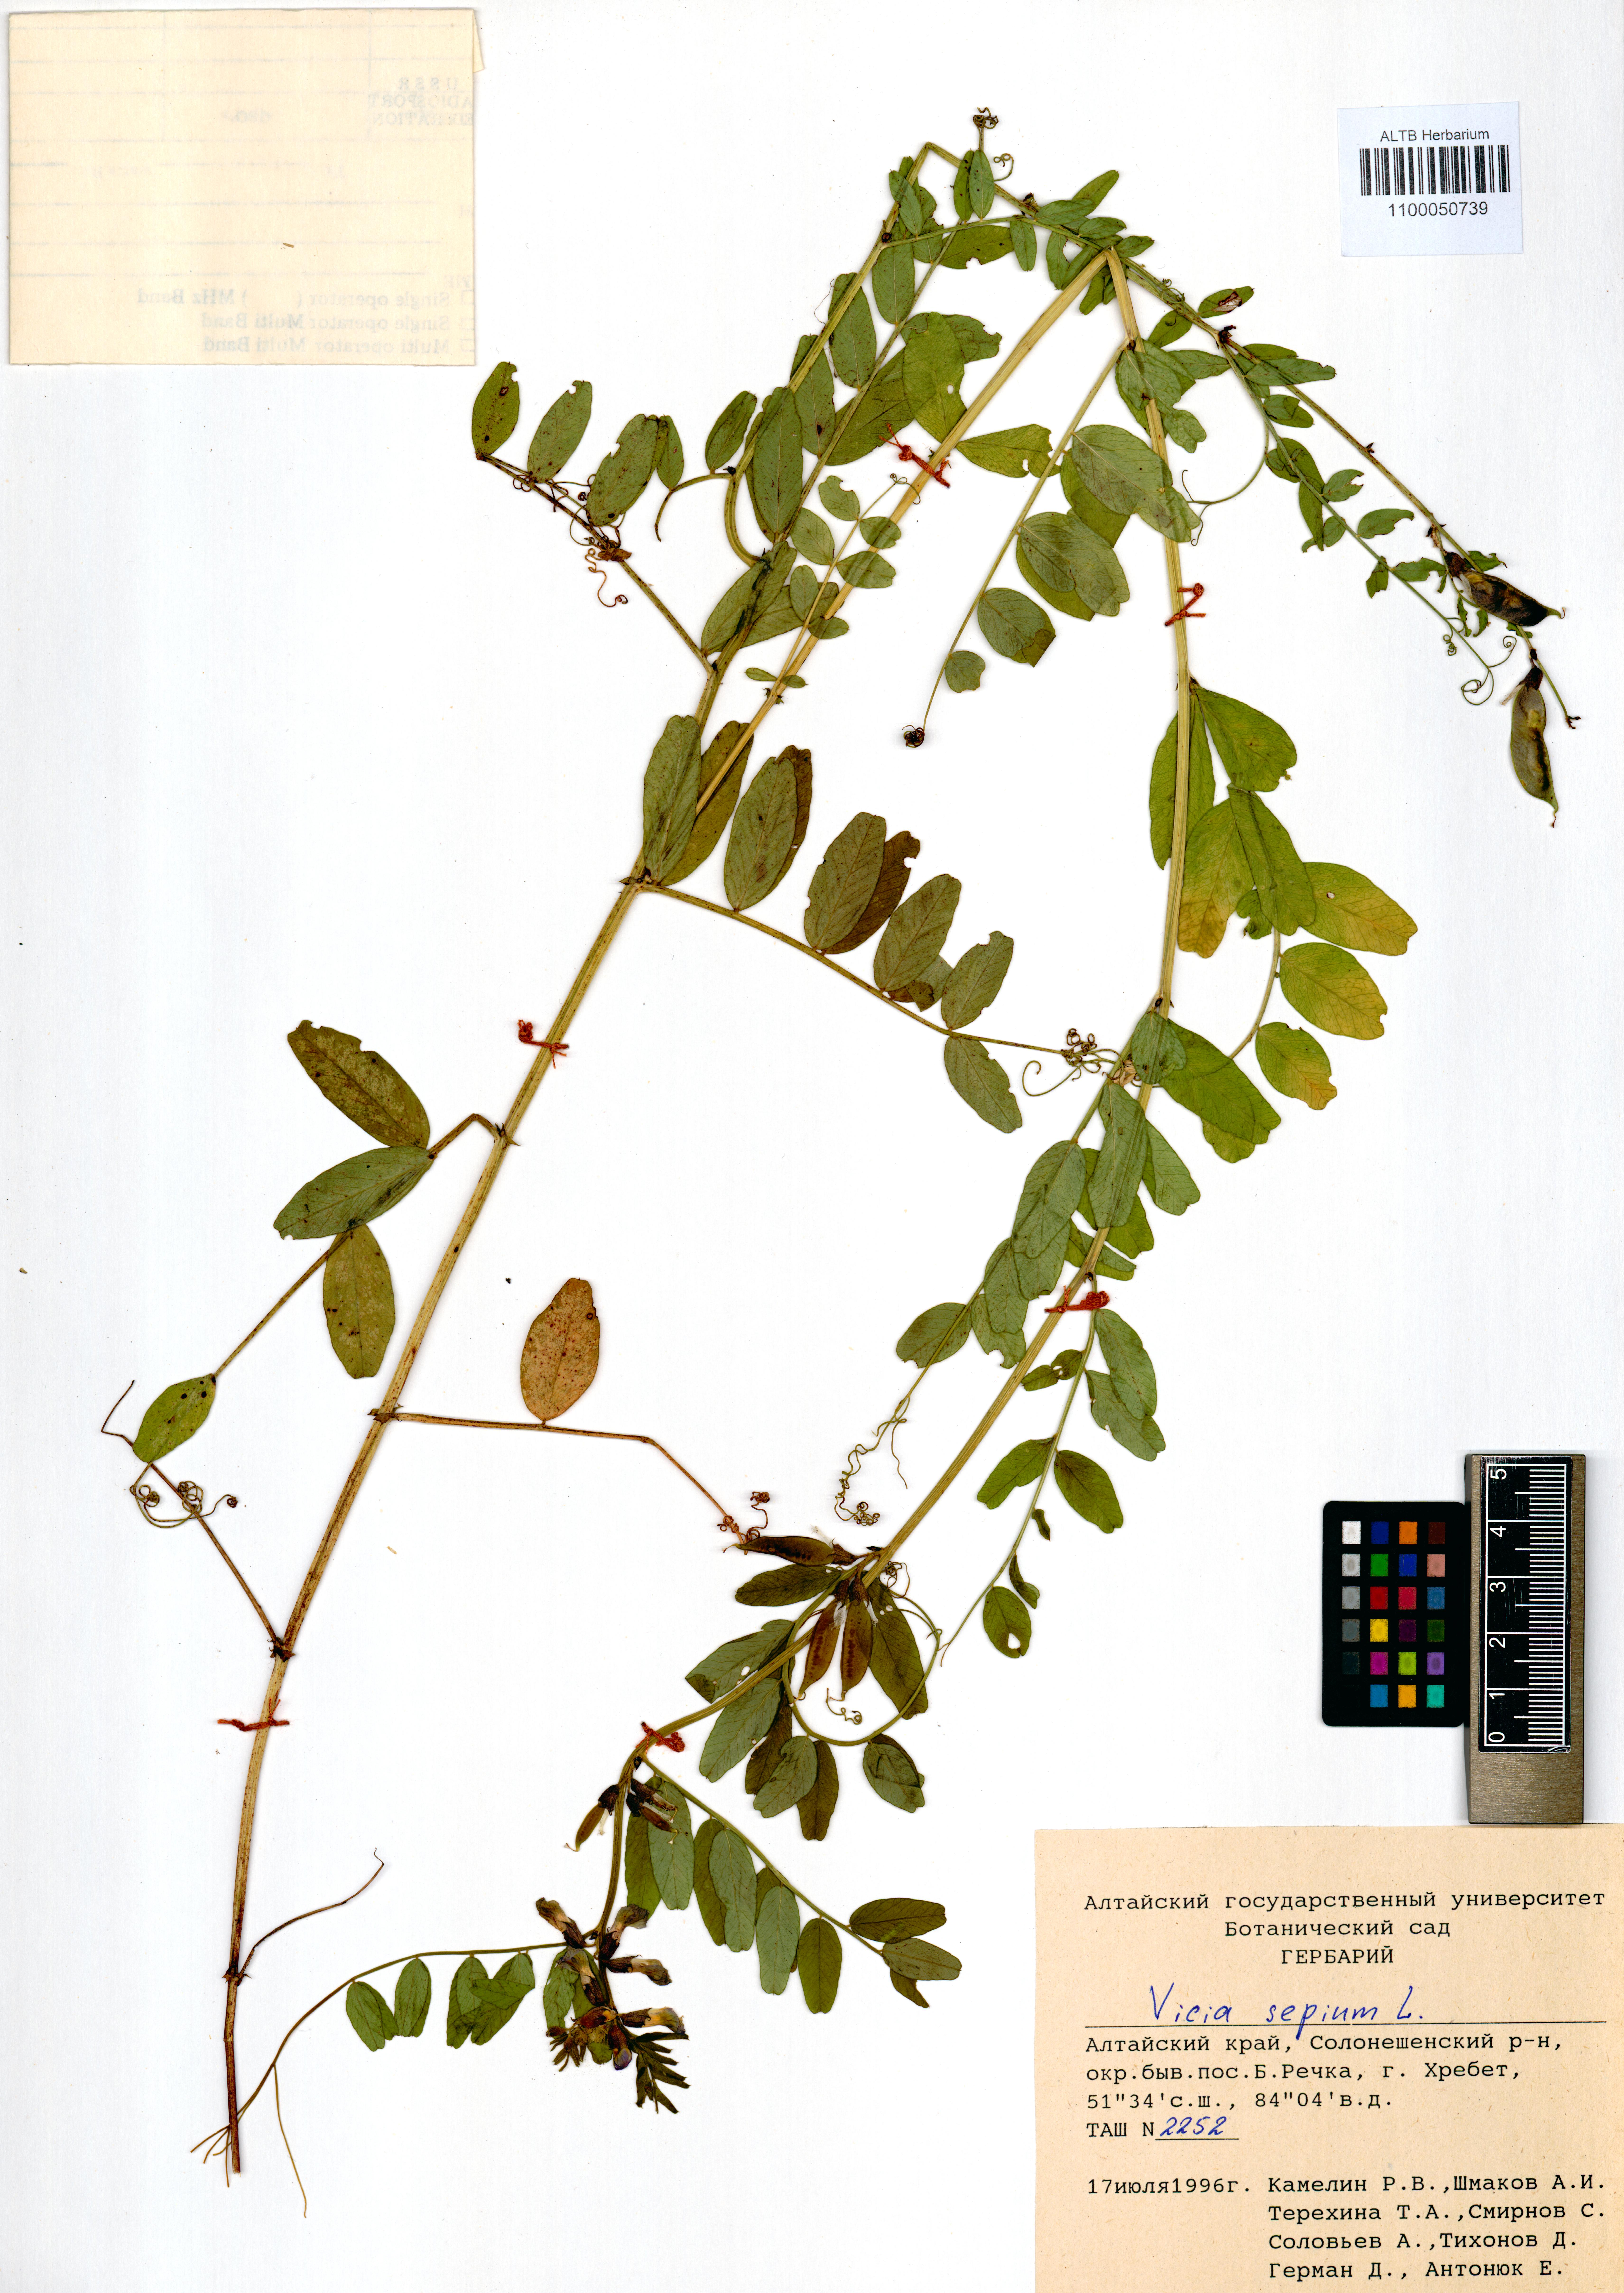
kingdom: Plantae
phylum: Tracheophyta
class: Magnoliopsida
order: Fabales
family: Fabaceae
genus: Vicia
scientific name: Vicia sepium
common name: Bush vetch
